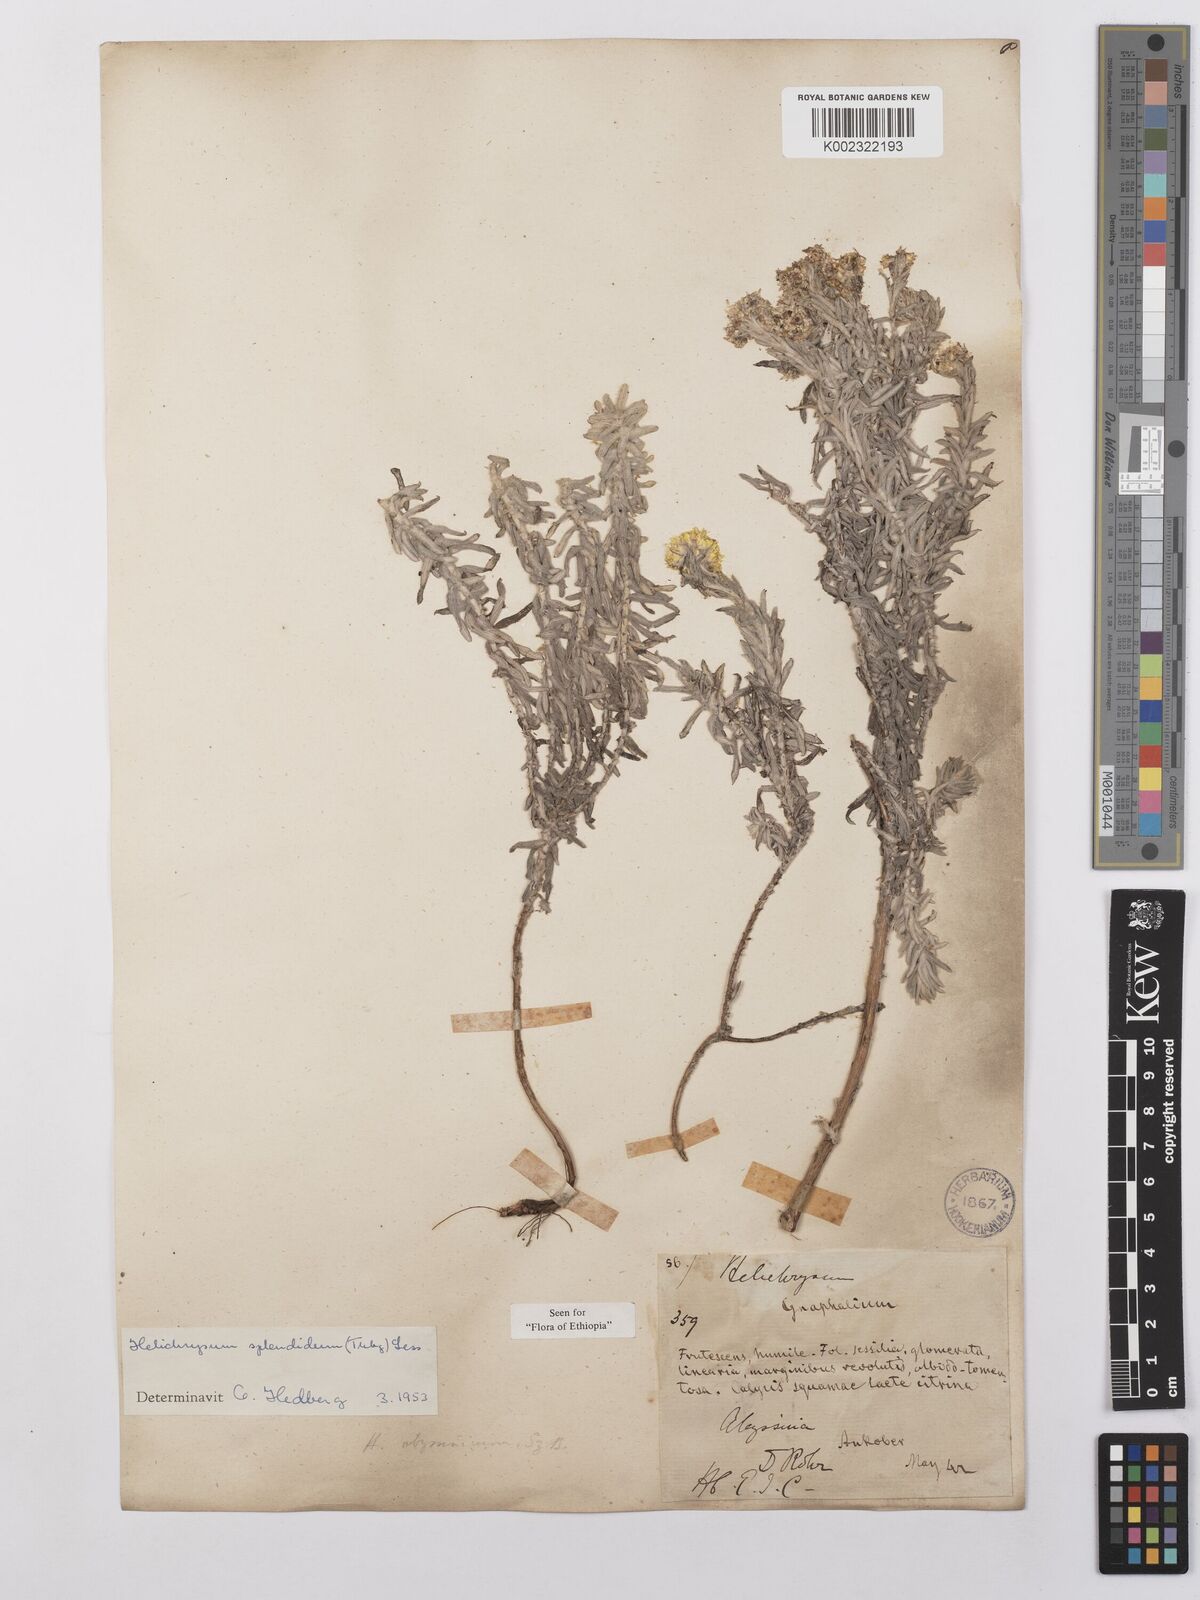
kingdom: Plantae
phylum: Tracheophyta
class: Magnoliopsida
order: Asterales
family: Asteraceae
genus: Helichrysum
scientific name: Helichrysum splendidum
